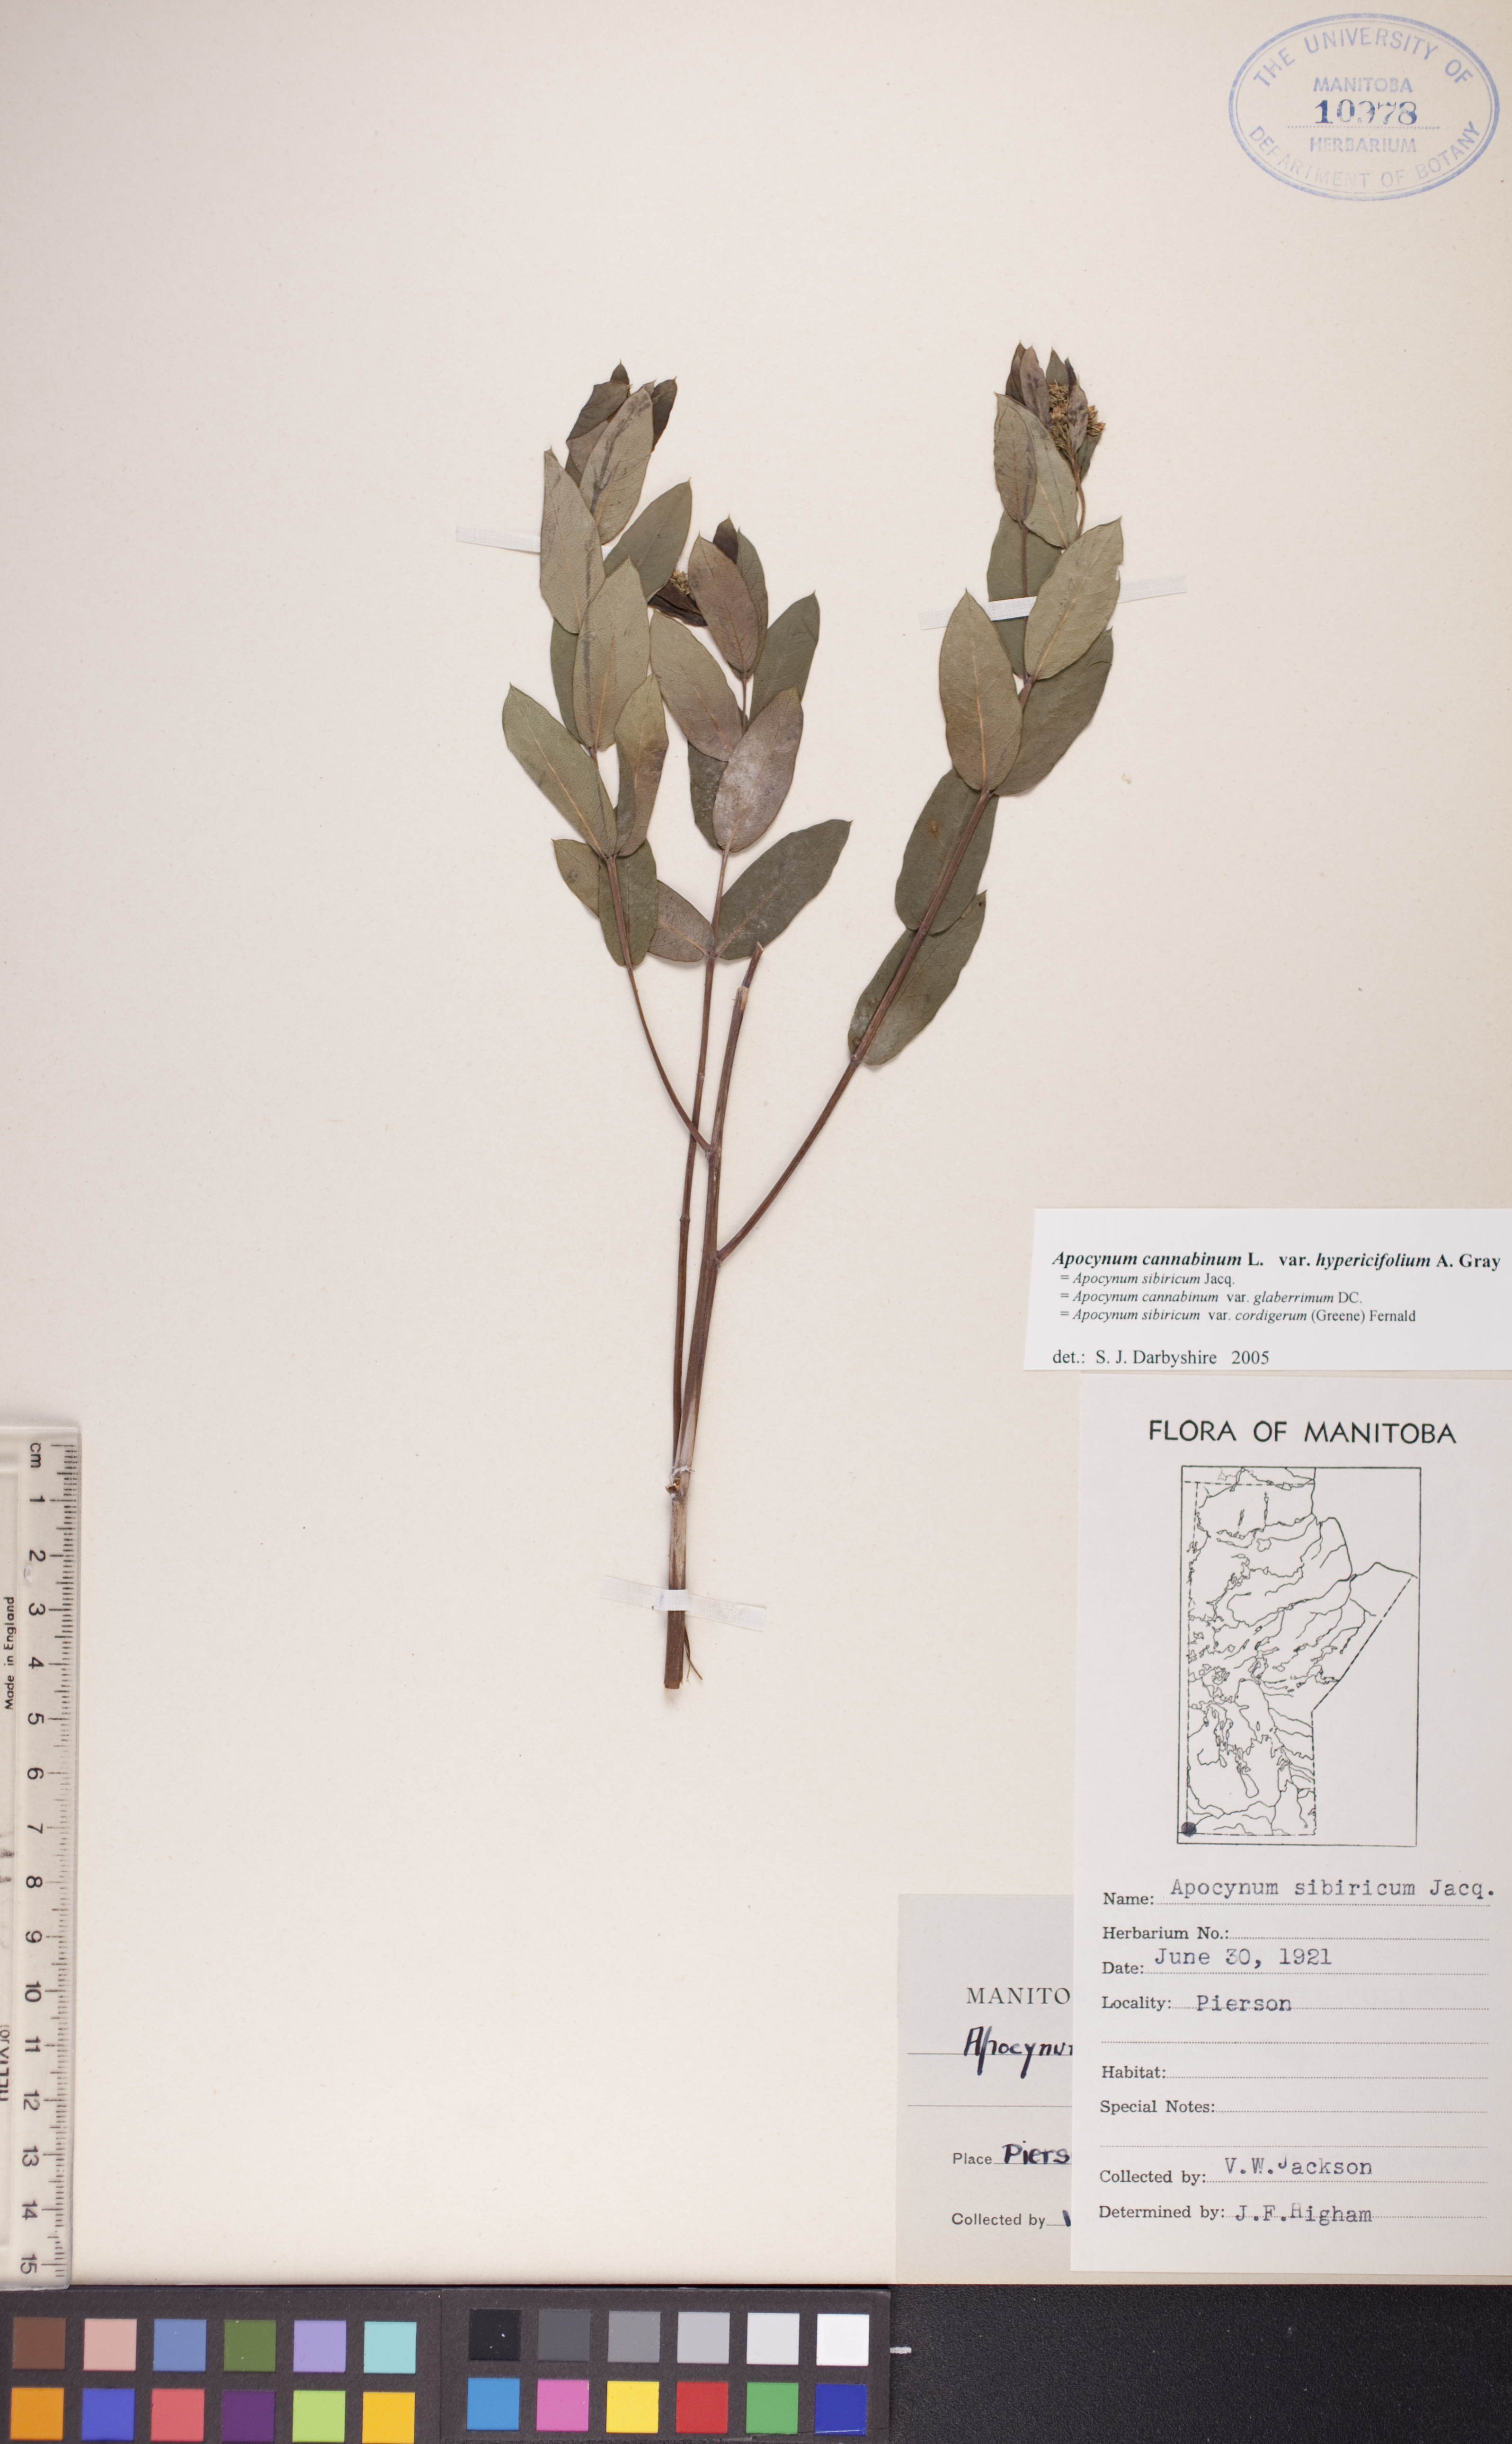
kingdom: Plantae
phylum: Tracheophyta
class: Magnoliopsida
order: Gentianales
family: Apocynaceae
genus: Apocynum
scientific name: Apocynum cannabinum
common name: Hemp dogbane
